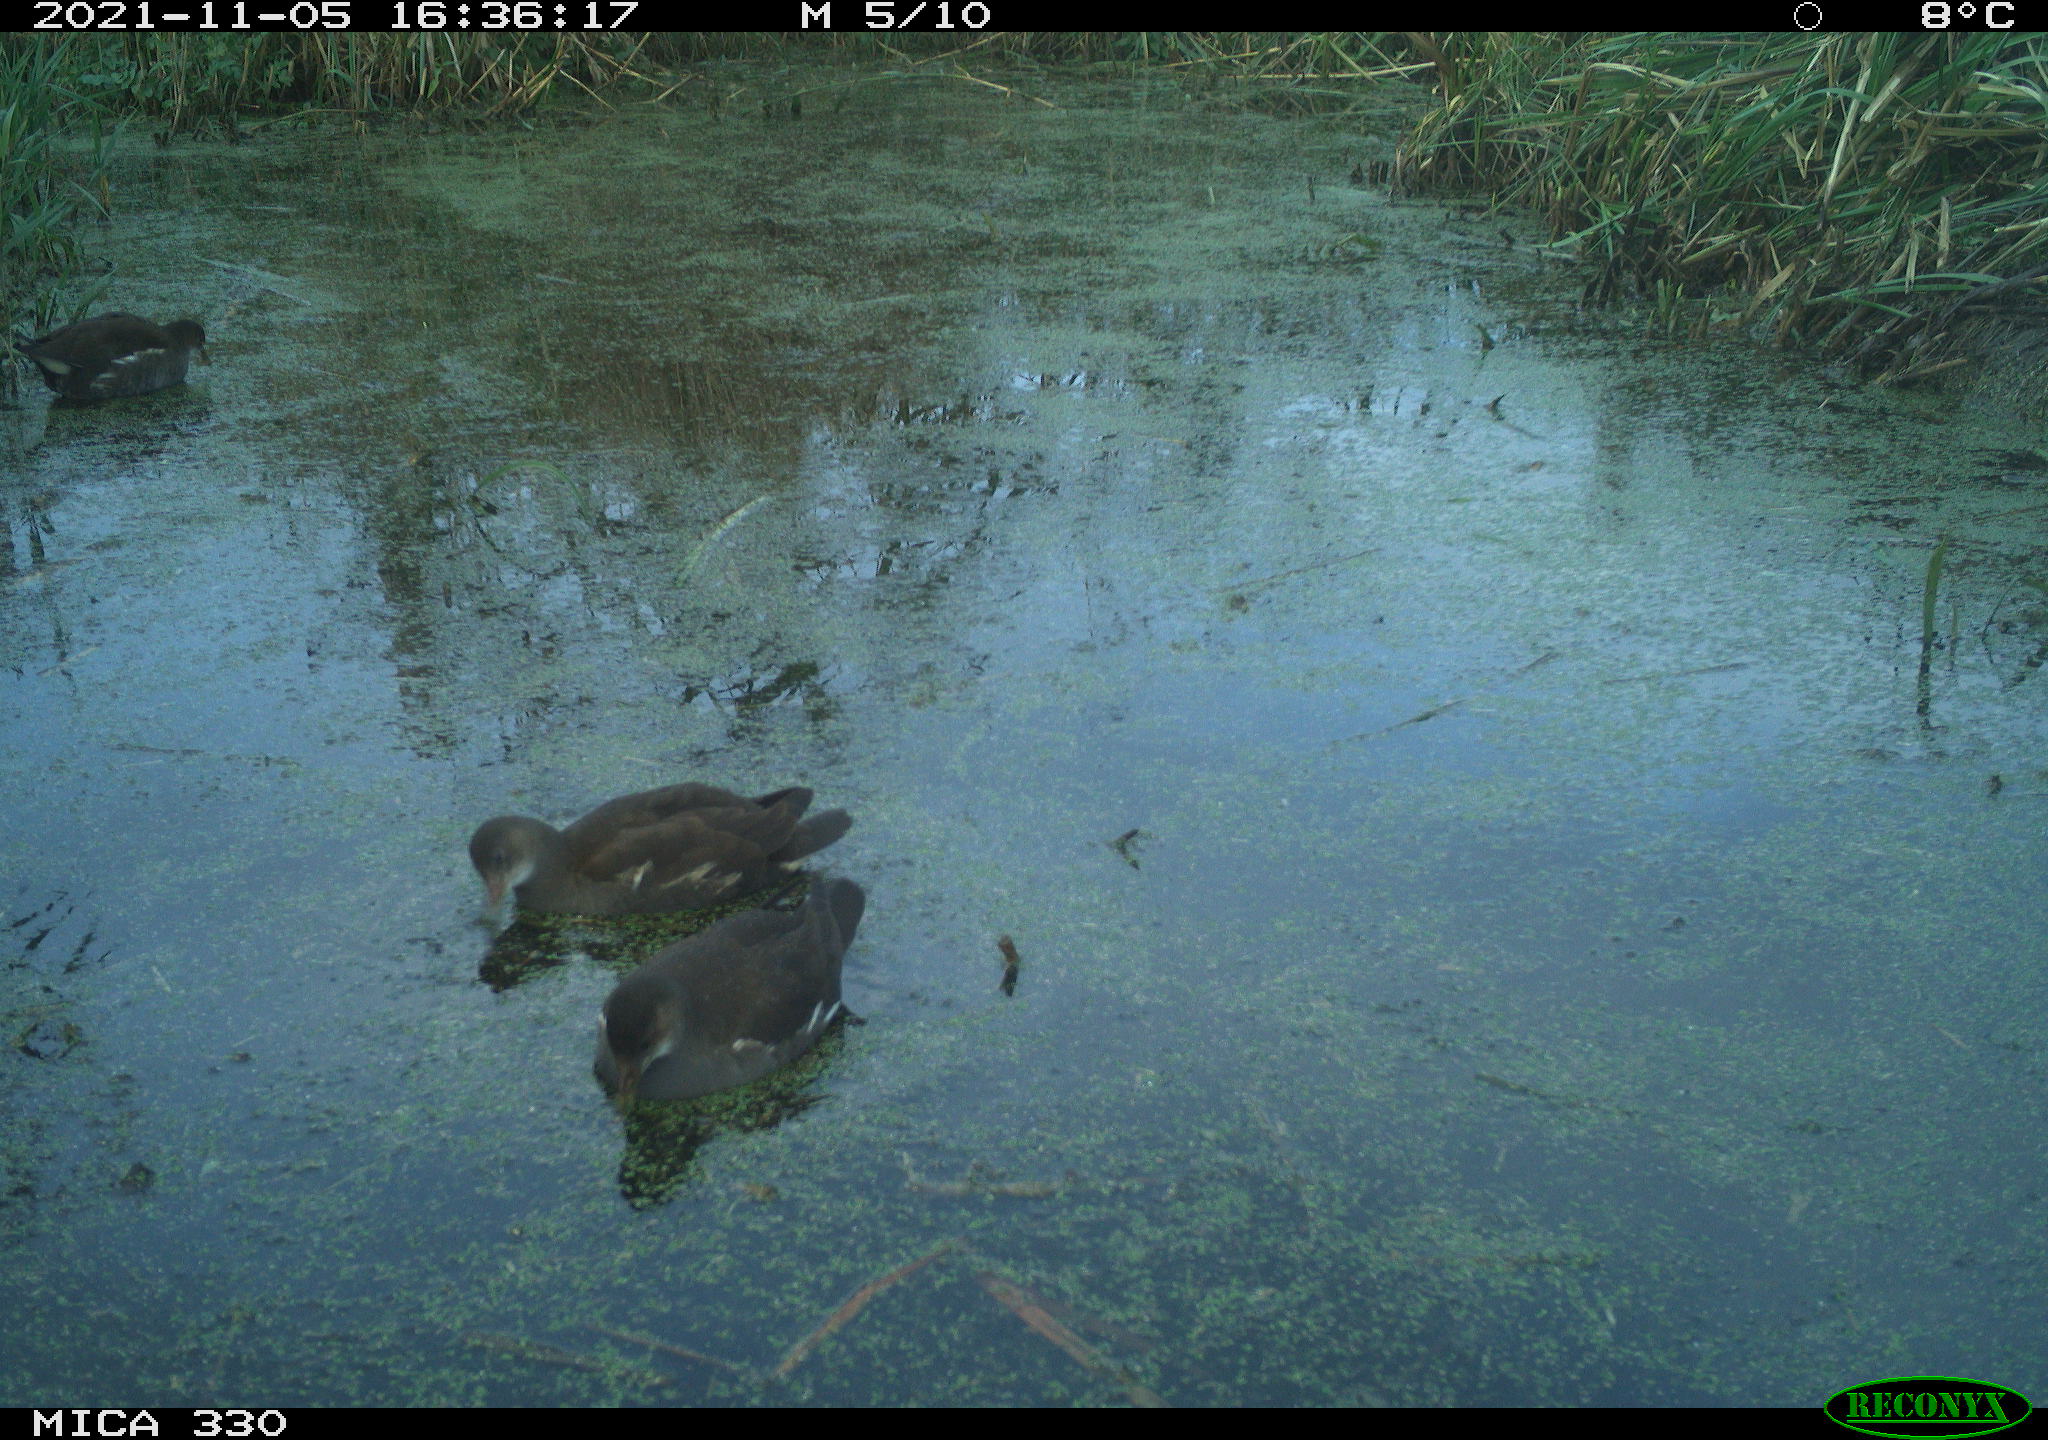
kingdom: Animalia
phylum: Chordata
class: Aves
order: Gruiformes
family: Rallidae
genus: Gallinula
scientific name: Gallinula chloropus
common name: Common moorhen
